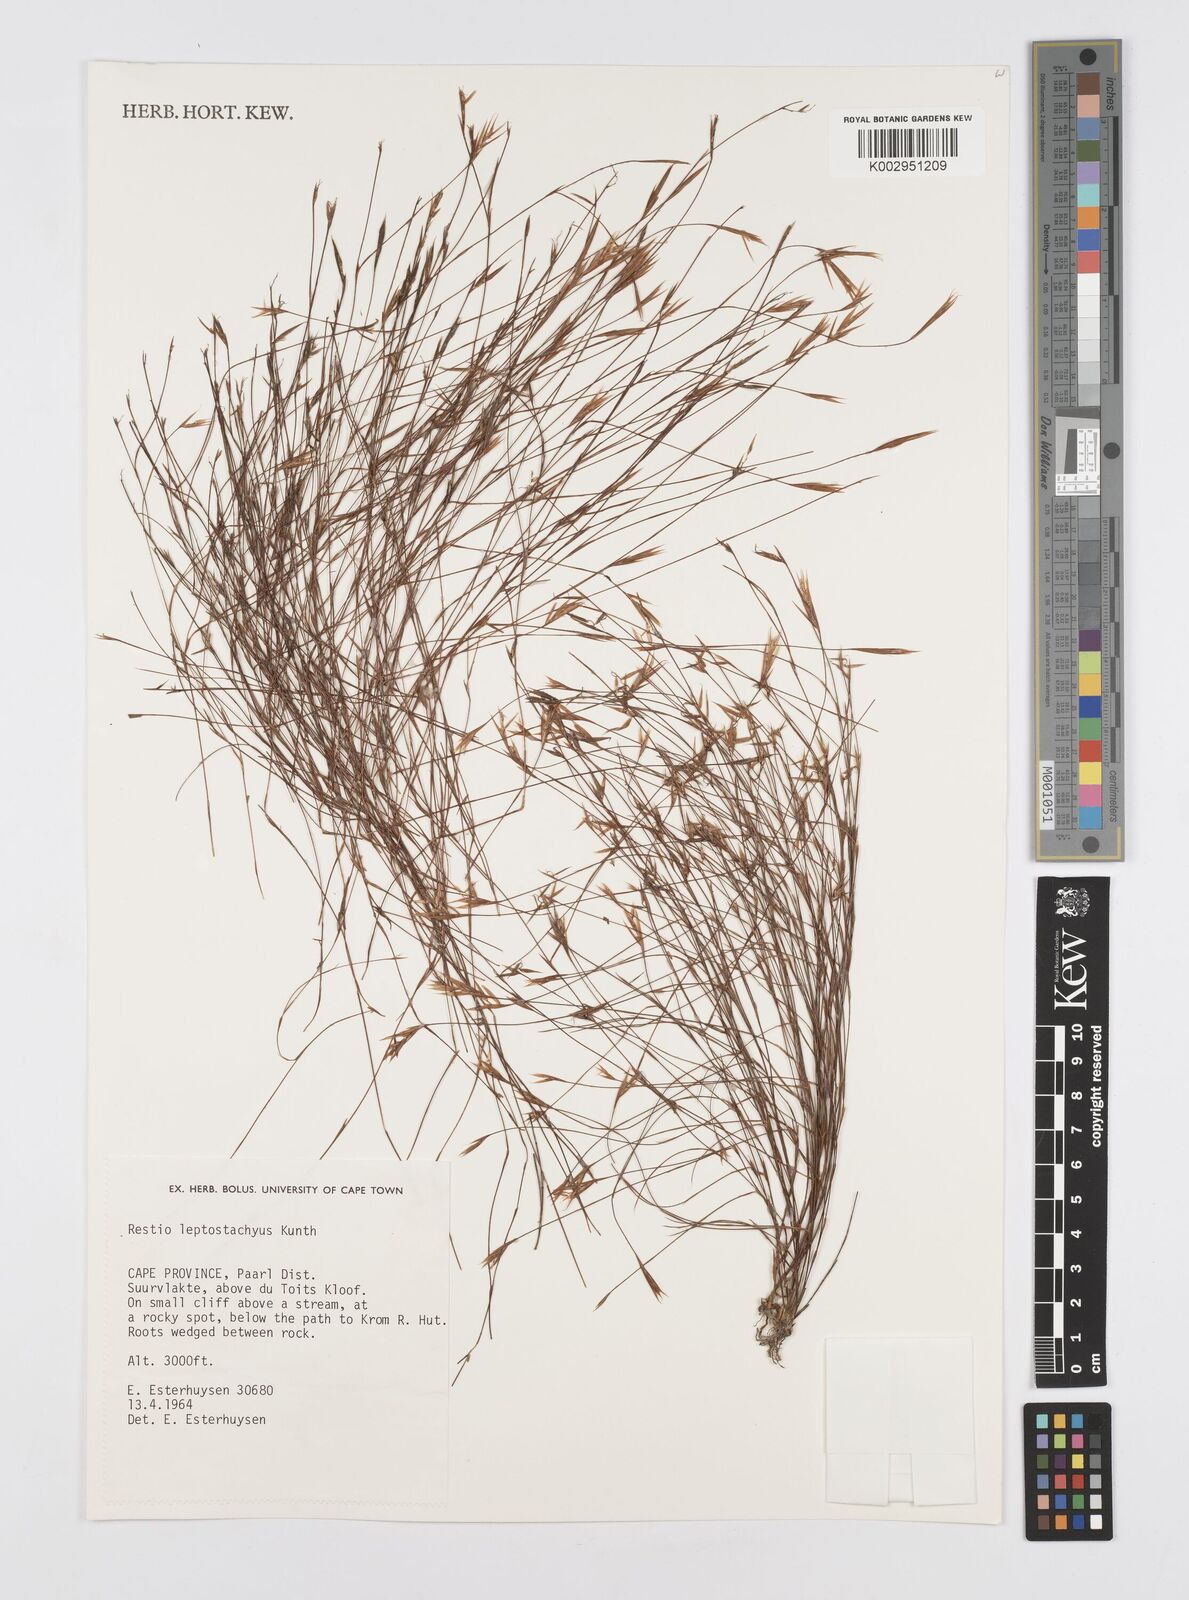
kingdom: Plantae
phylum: Tracheophyta
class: Liliopsida
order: Poales
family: Restionaceae
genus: Restio
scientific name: Restio leptostachyus
